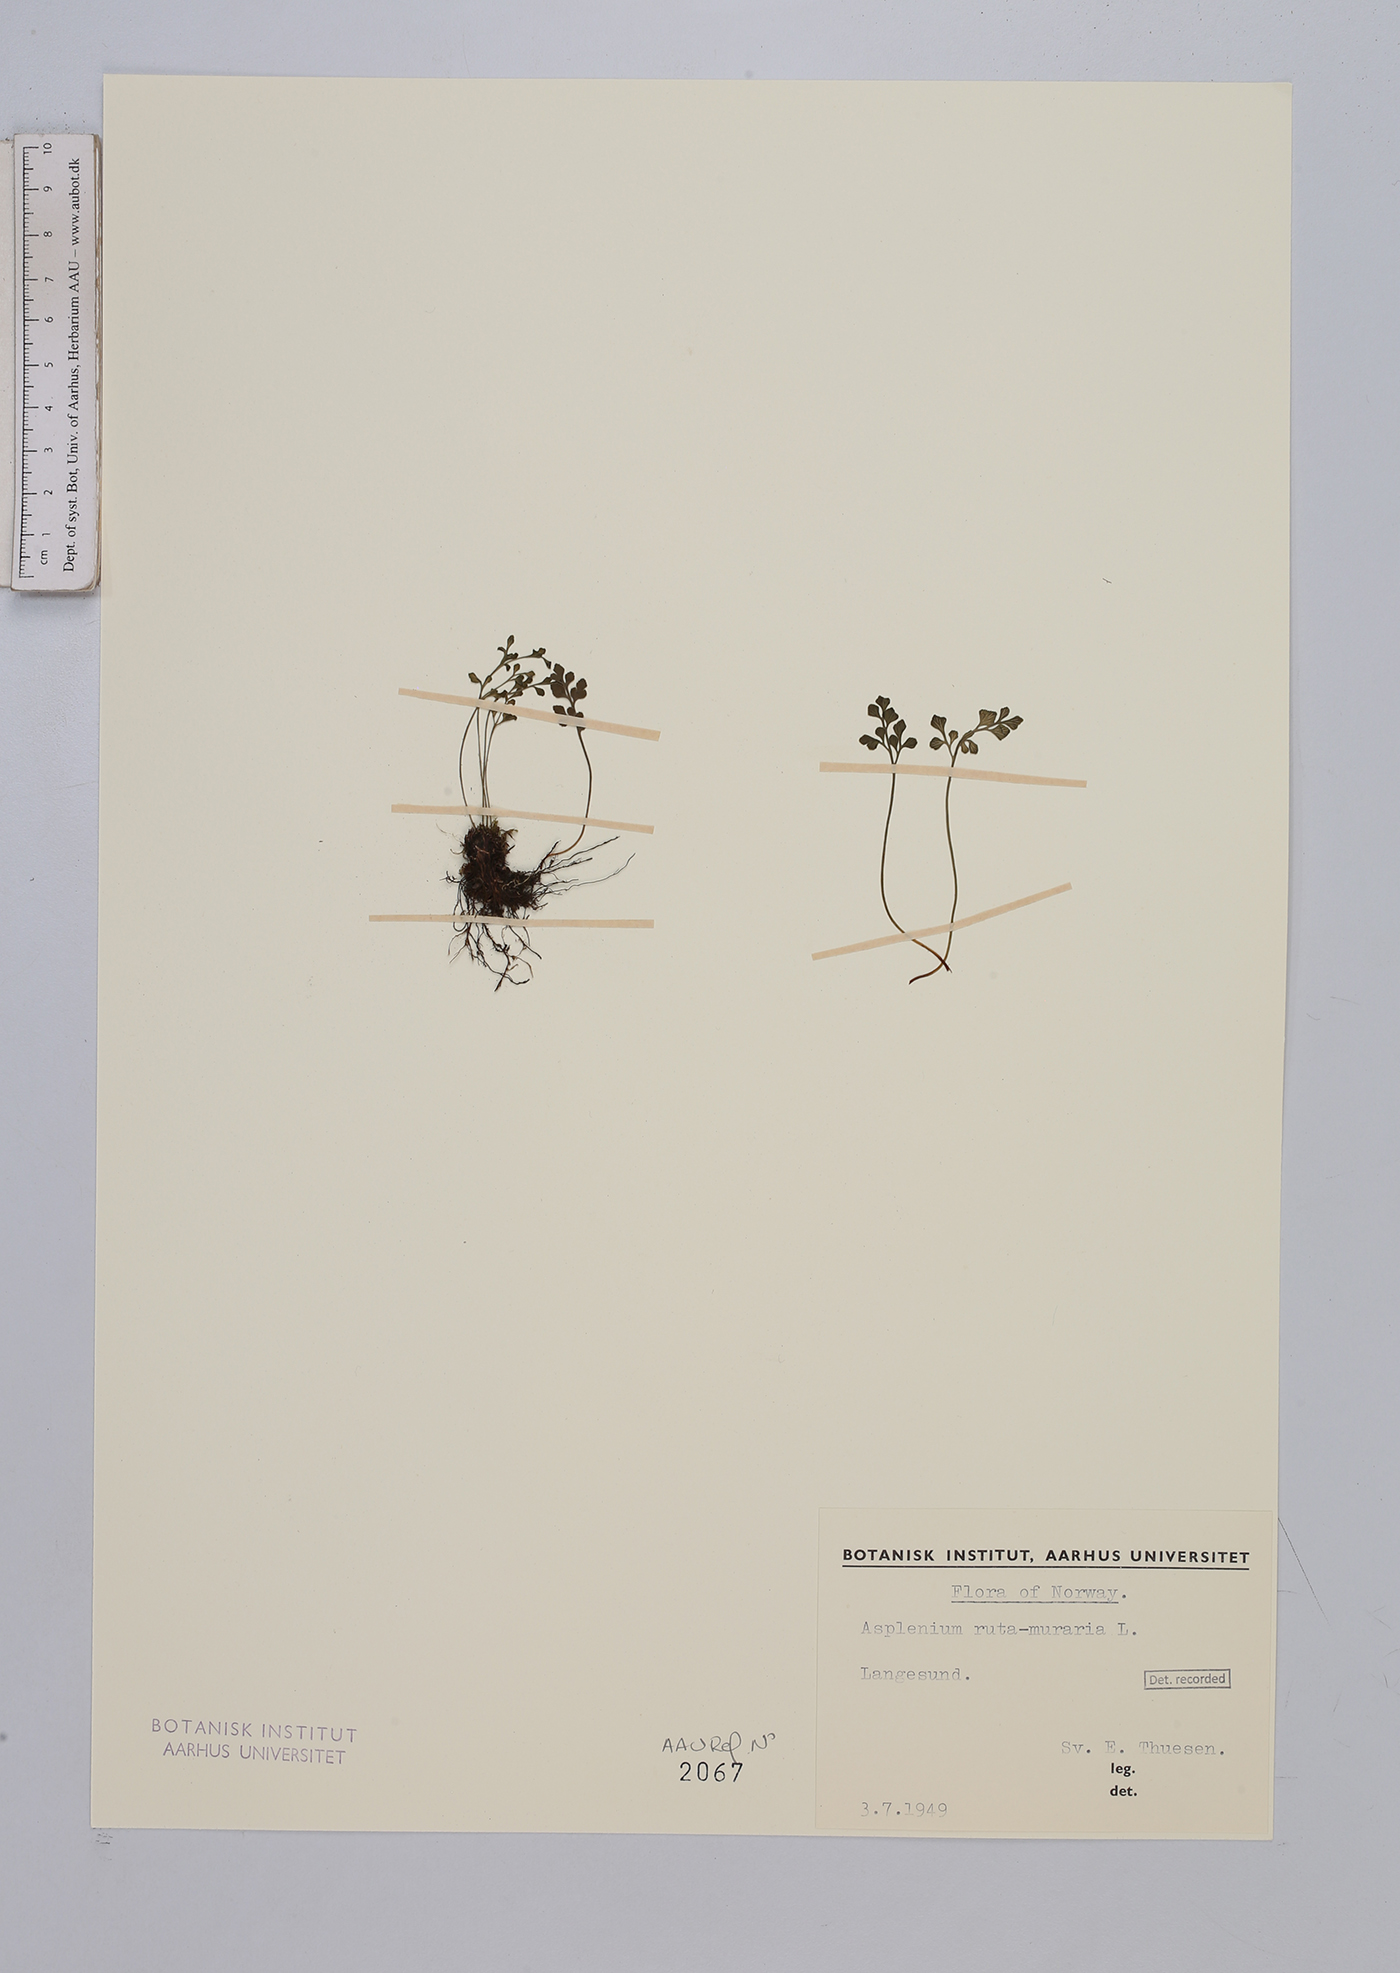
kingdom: Plantae
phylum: Tracheophyta
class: Polypodiopsida
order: Polypodiales
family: Aspleniaceae
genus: Asplenium
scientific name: Asplenium ruta-muraria
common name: Wall-rue
